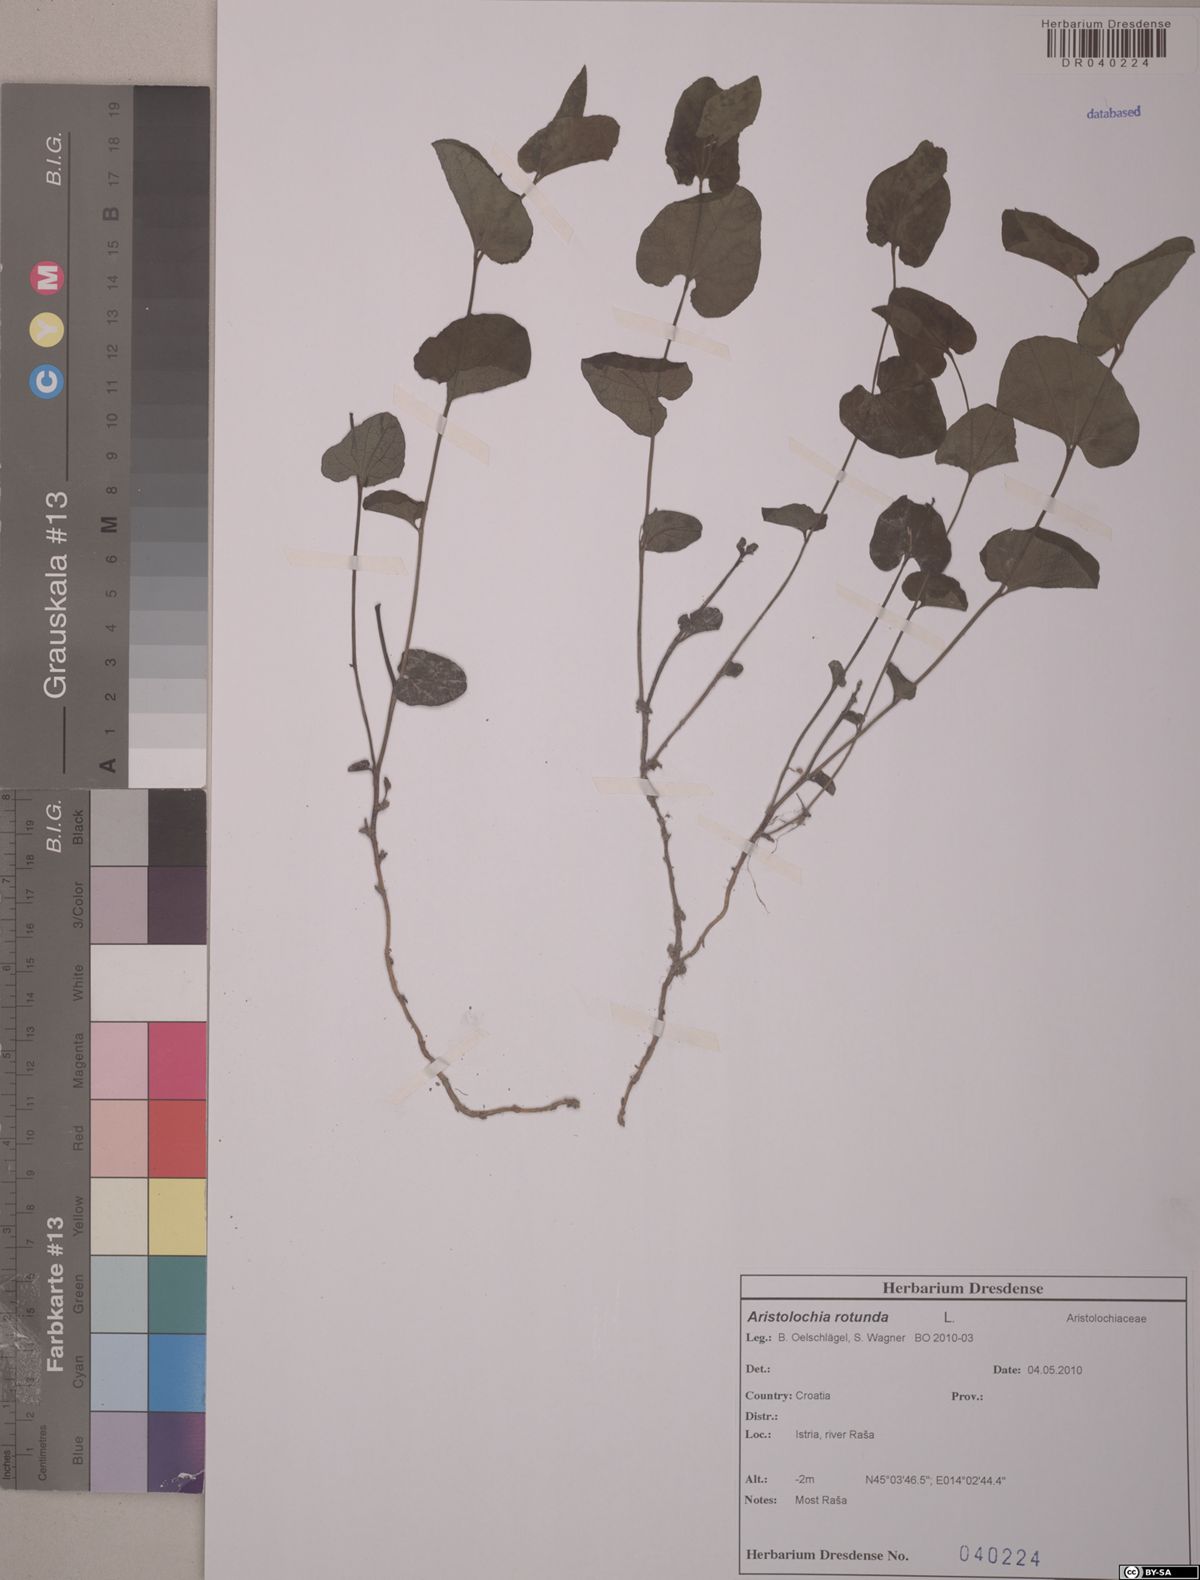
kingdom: Plantae
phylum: Tracheophyta
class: Magnoliopsida
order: Piperales
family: Aristolochiaceae
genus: Aristolochia
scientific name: Aristolochia rotunda
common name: Smearwort
